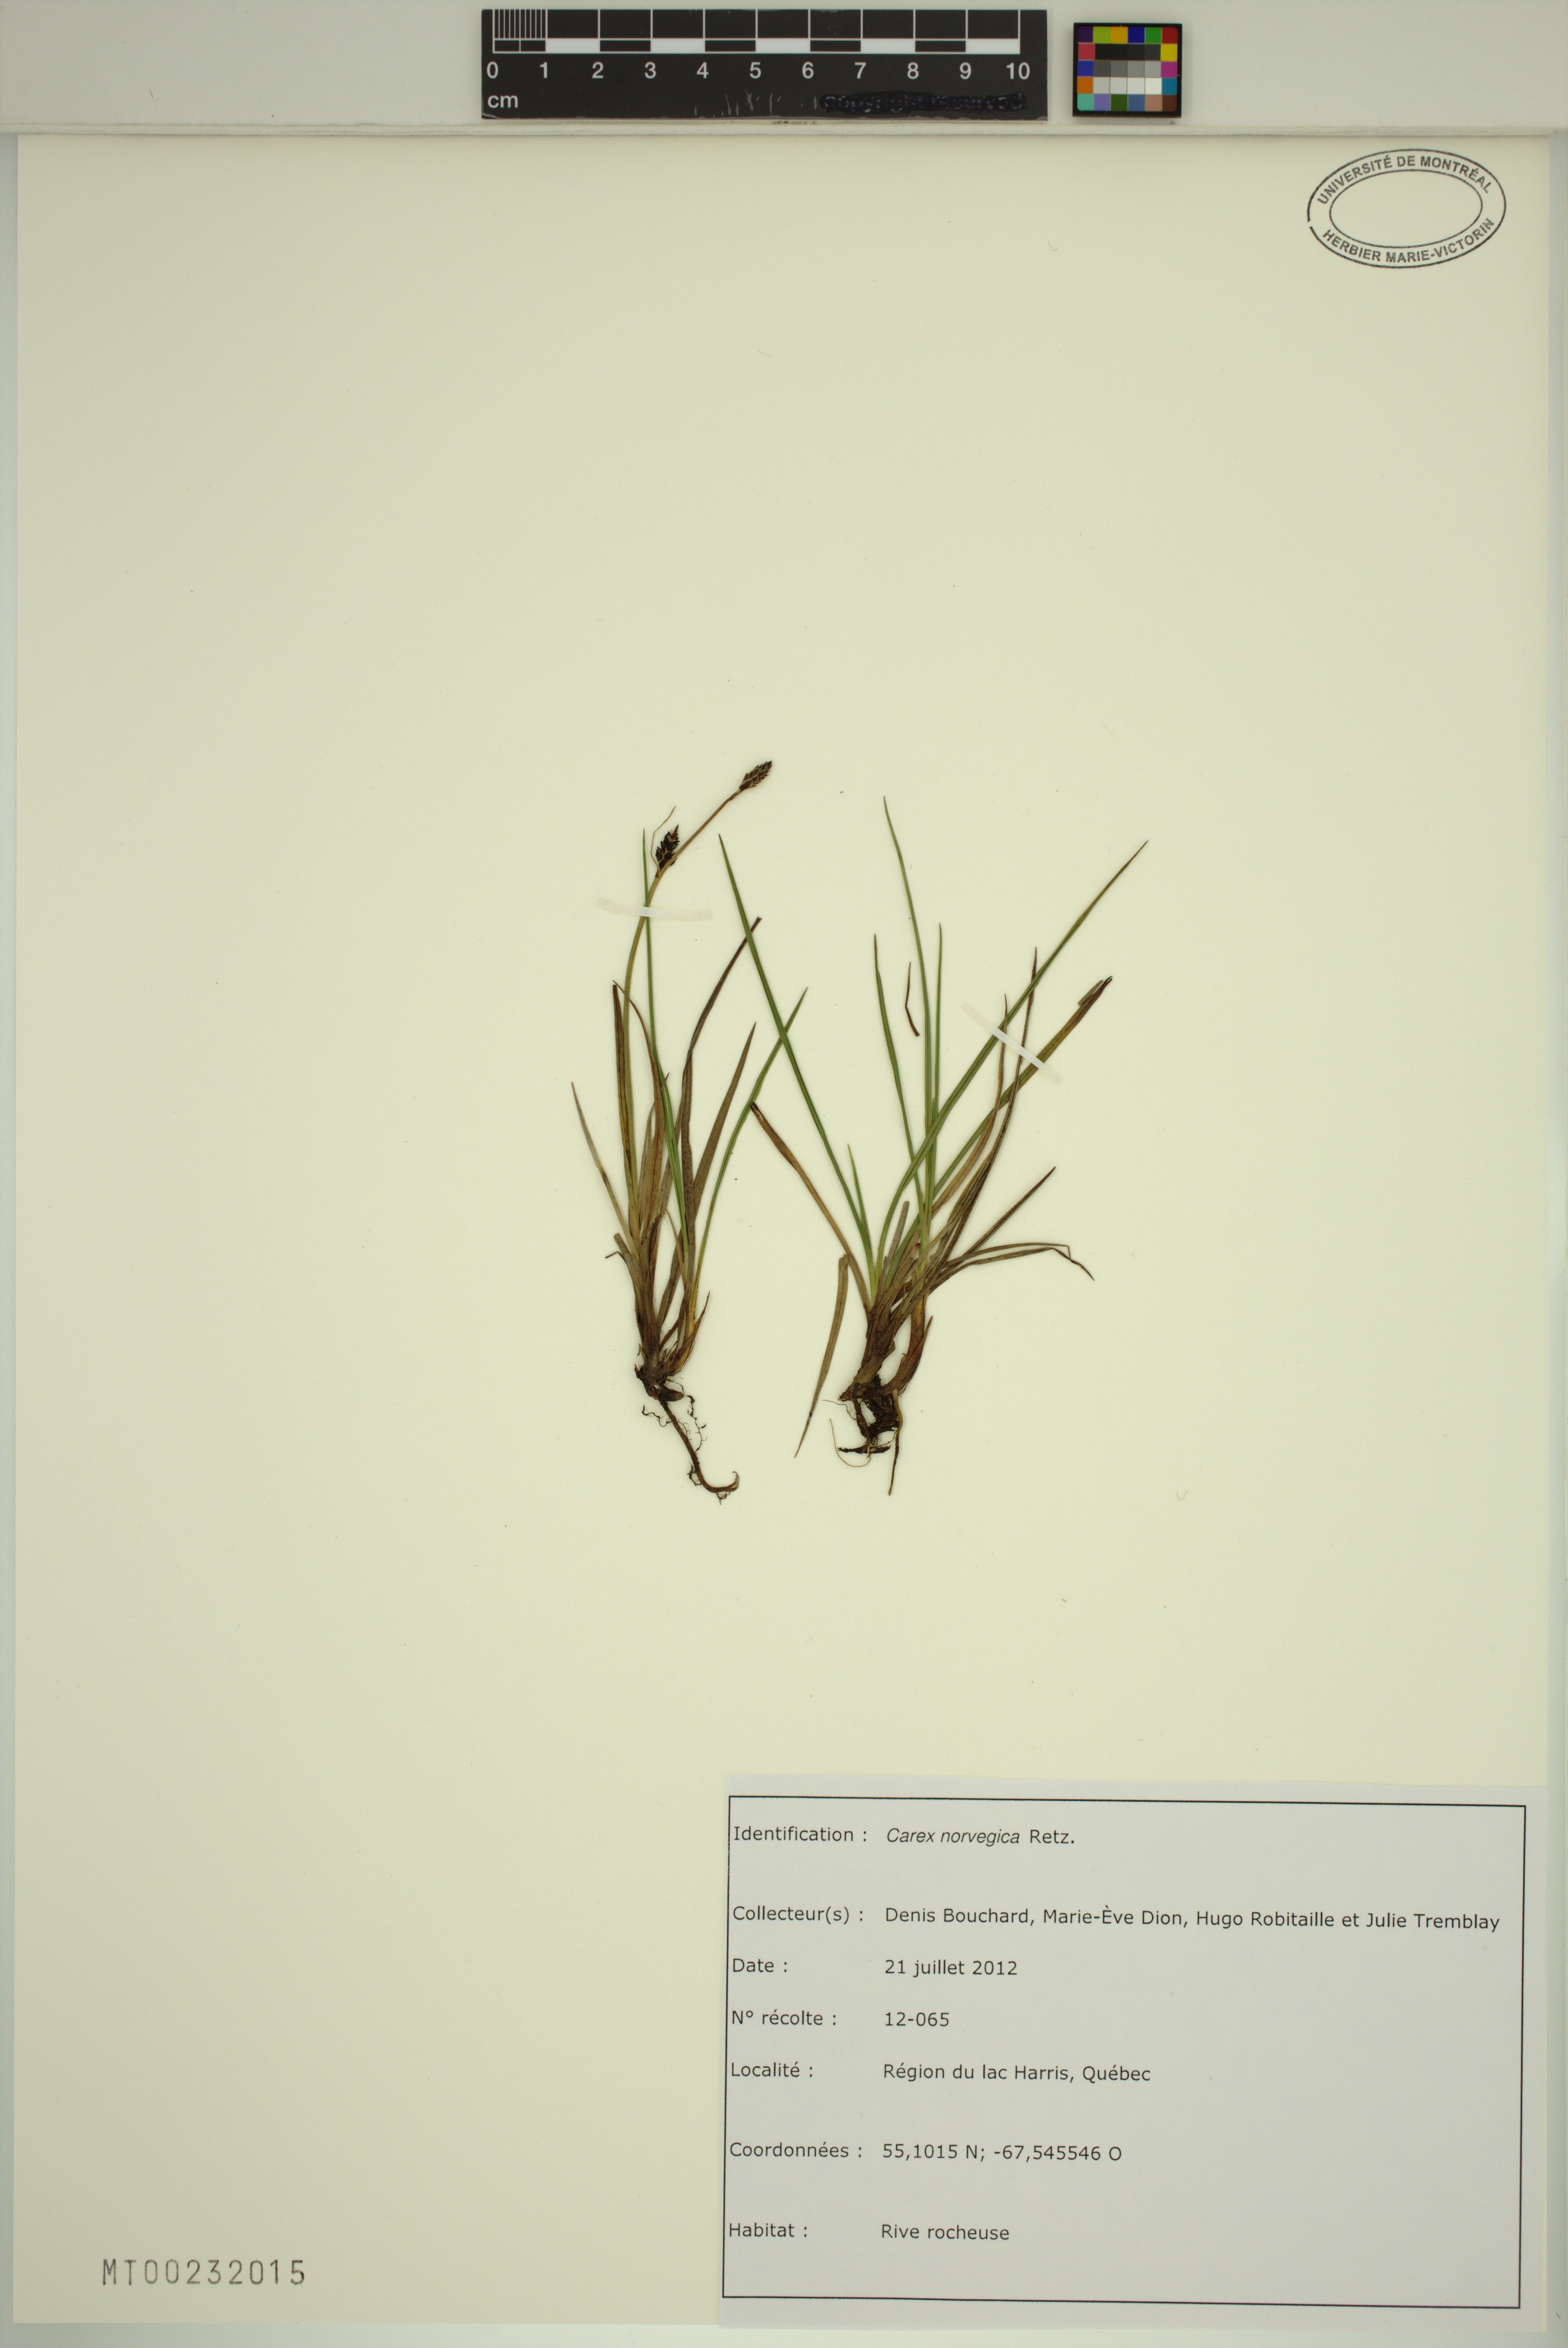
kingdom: Plantae
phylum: Tracheophyta
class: Liliopsida
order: Poales
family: Cyperaceae
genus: Carex
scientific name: Carex norvegica
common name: Close-headed alpine-sedge
